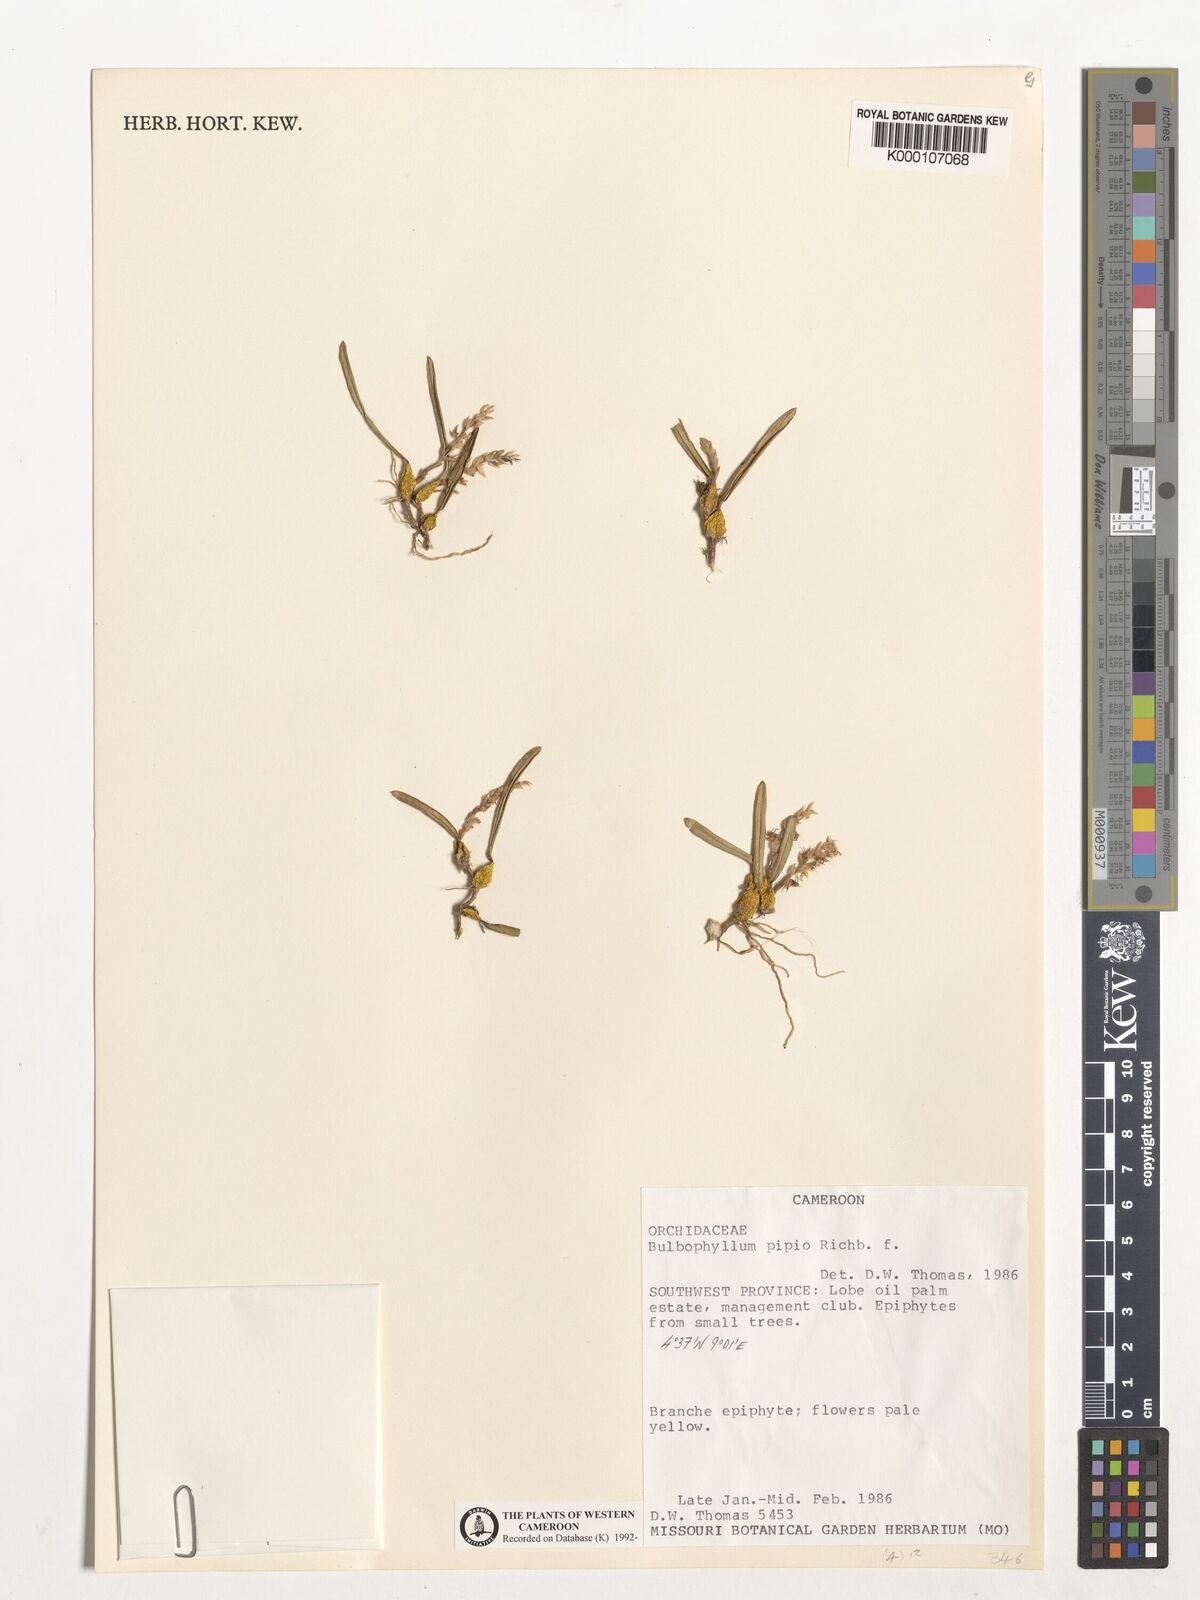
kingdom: Plantae
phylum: Tracheophyta
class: Liliopsida
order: Asparagales
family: Orchidaceae
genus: Bulbophyllum
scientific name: Bulbophyllum pipio
